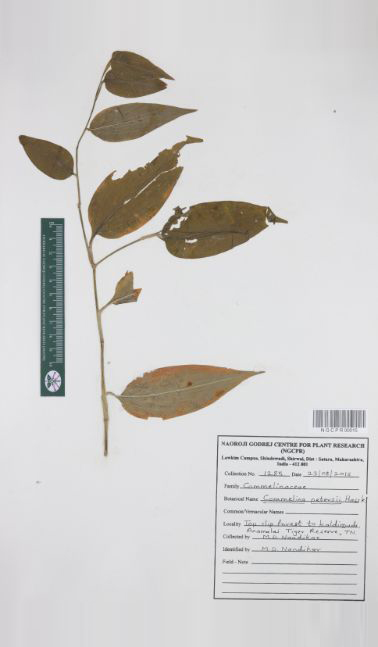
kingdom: Plantae
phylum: Tracheophyta
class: Liliopsida
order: Commelinales
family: Commelinaceae
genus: Commelina
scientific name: Commelina petersii
